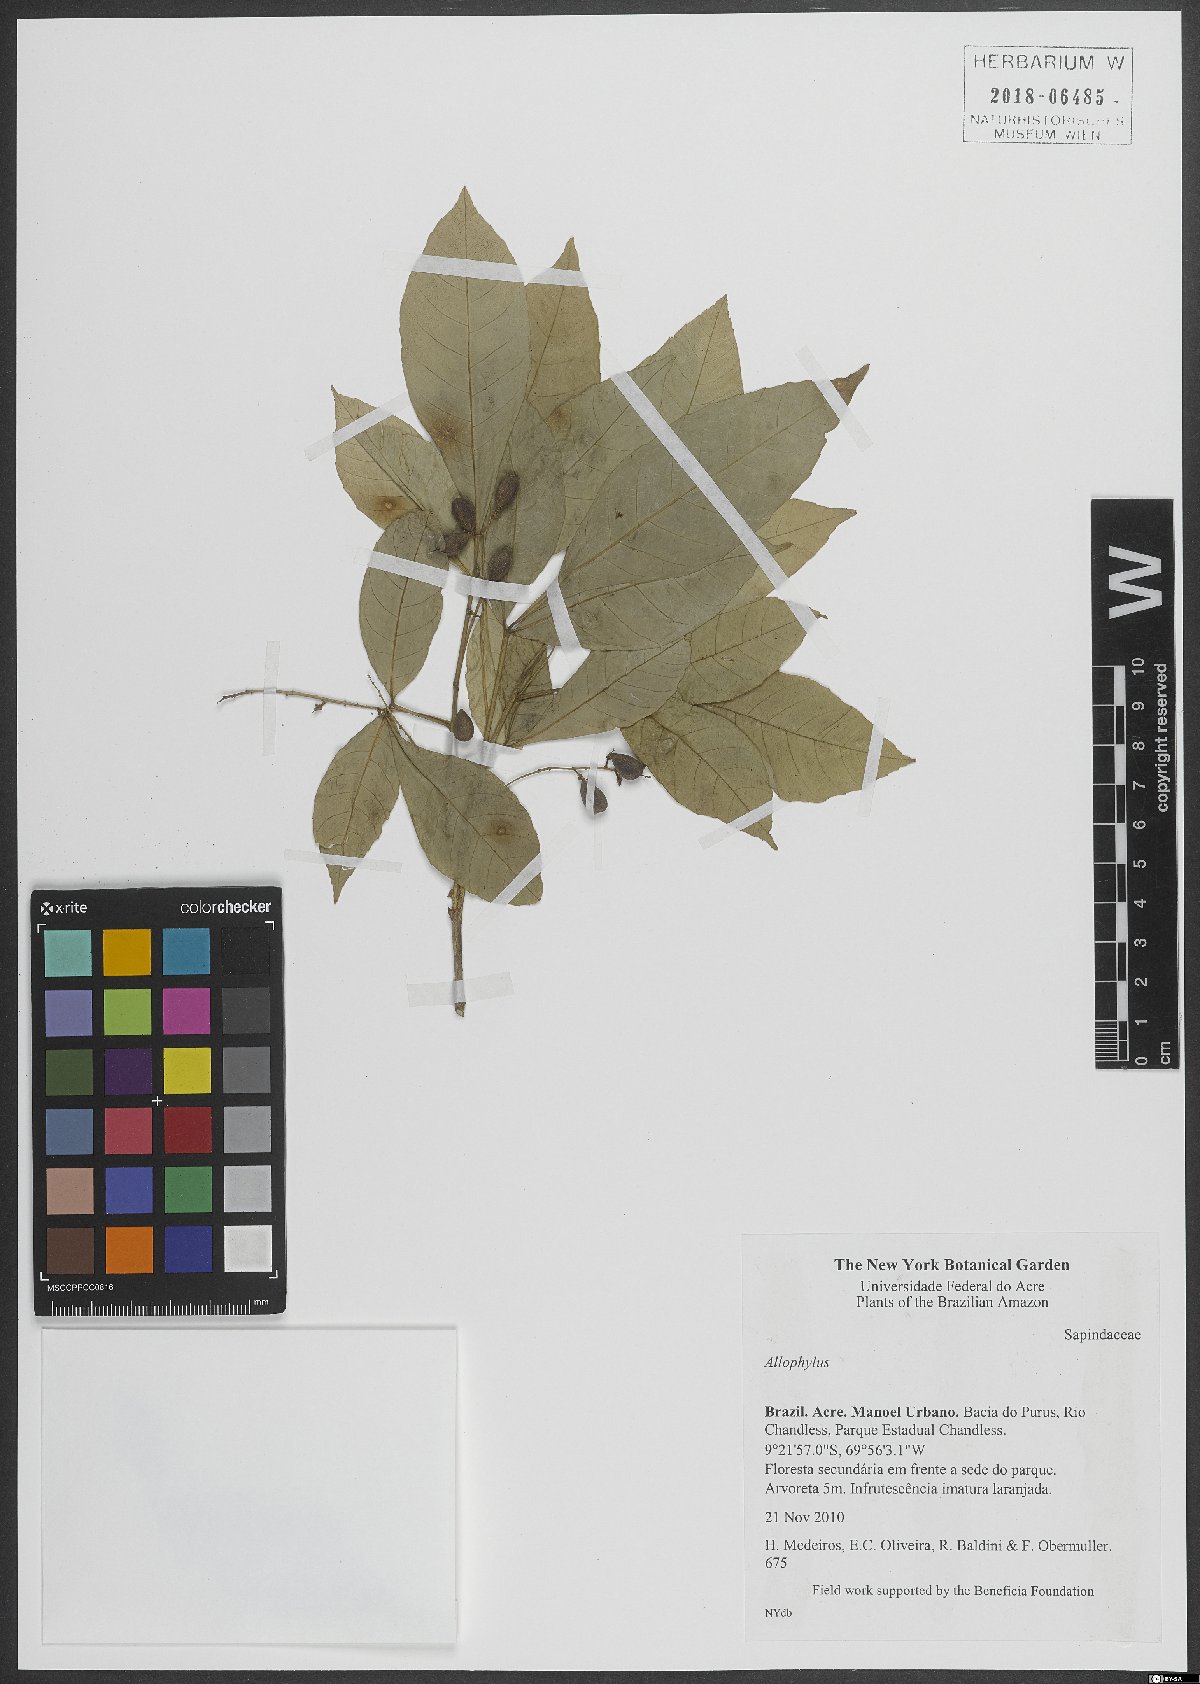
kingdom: Plantae
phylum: Tracheophyta
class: Magnoliopsida
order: Sapindales
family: Sapindaceae
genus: Allophylus
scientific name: Allophylus
